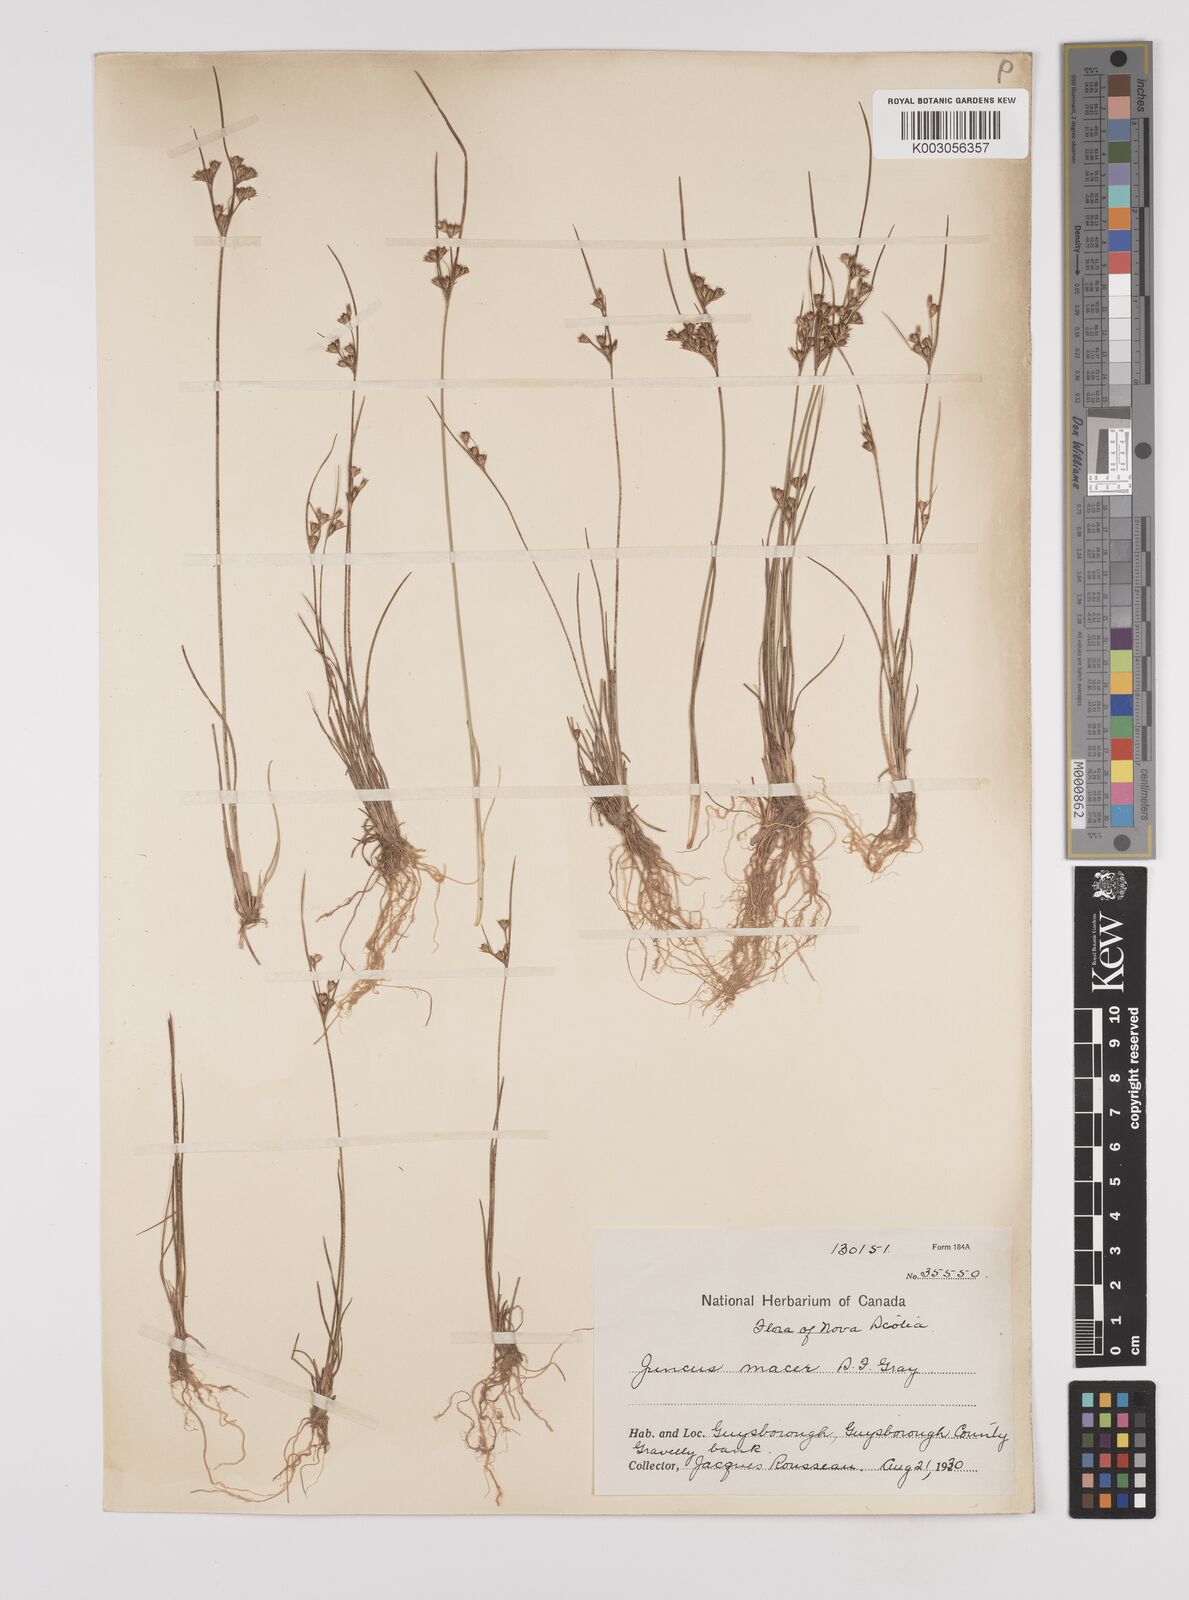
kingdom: Plantae
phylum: Tracheophyta
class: Liliopsida
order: Poales
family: Juncaceae
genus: Juncus
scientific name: Juncus tenuis
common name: Slender rush
